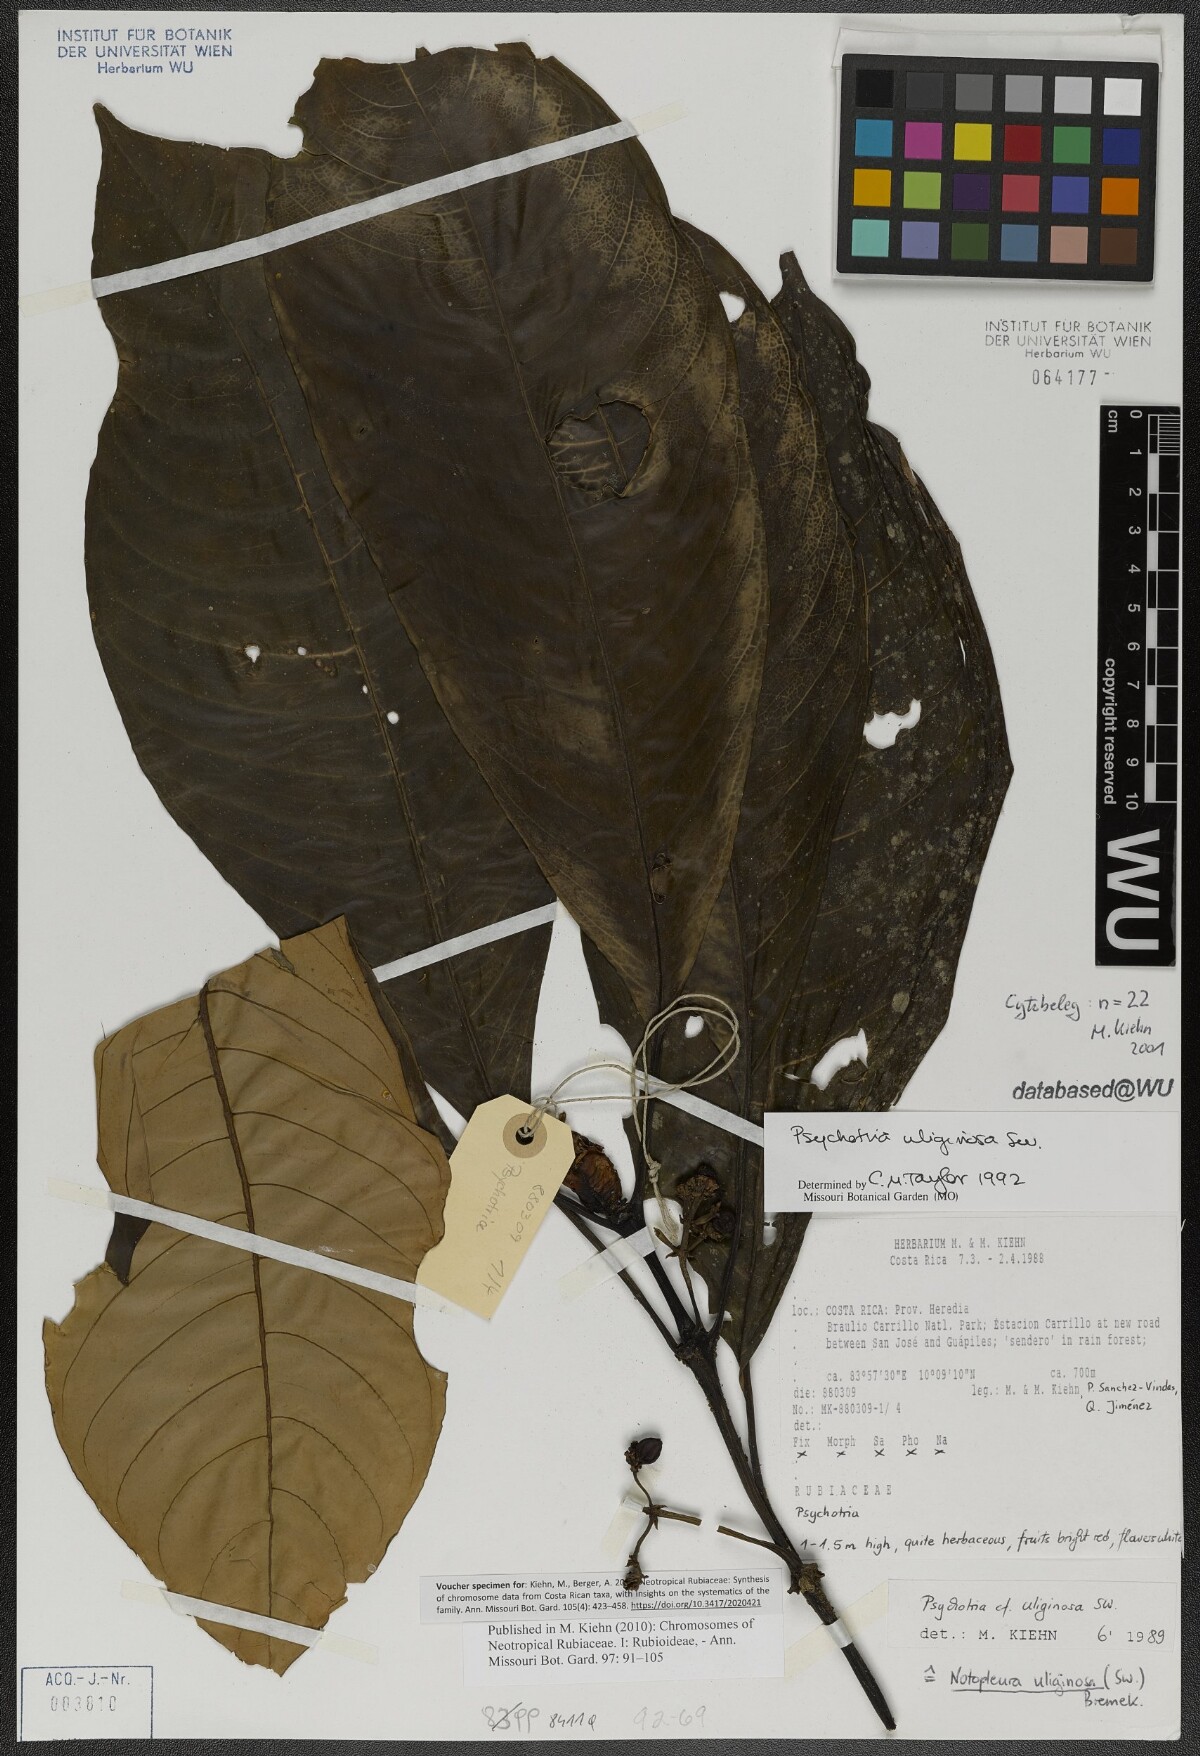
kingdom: Plantae
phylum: Tracheophyta
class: Magnoliopsida
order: Gentianales
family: Rubiaceae
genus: Notopleura
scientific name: Notopleura uliginosa
